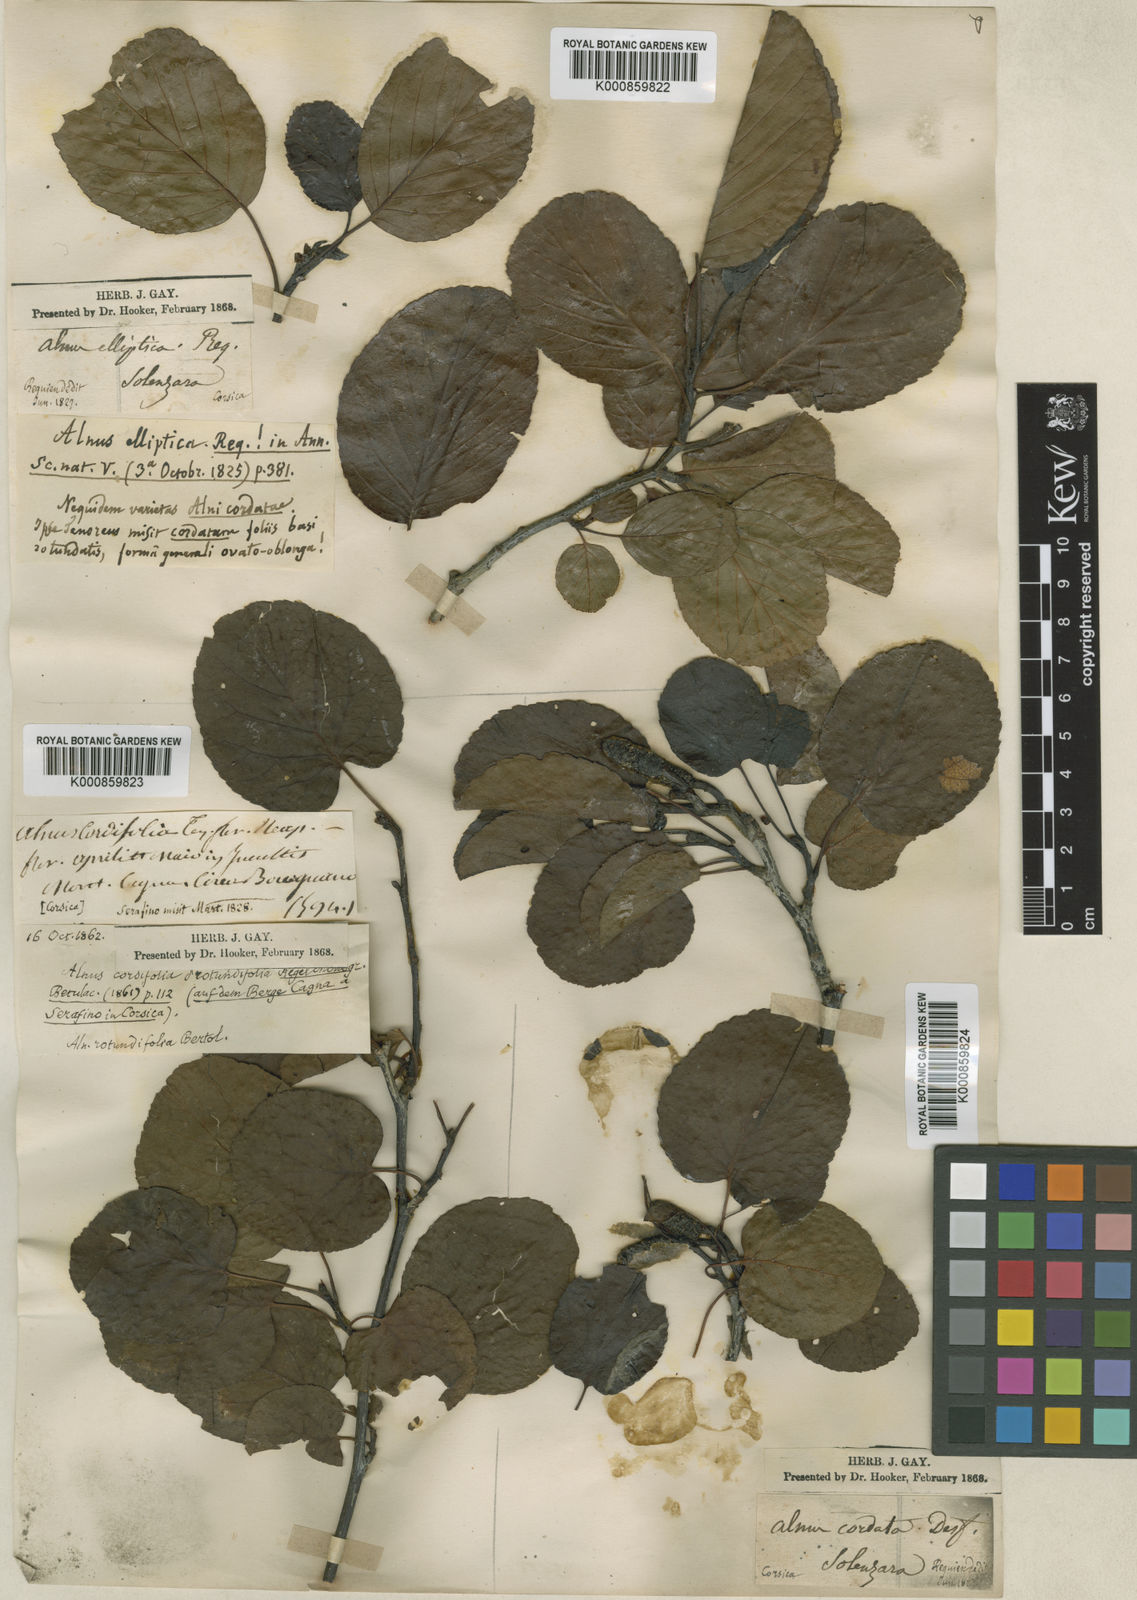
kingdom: Plantae
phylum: Tracheophyta
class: Magnoliopsida
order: Fagales
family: Betulaceae
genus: Alnus
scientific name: Alnus elliptica
